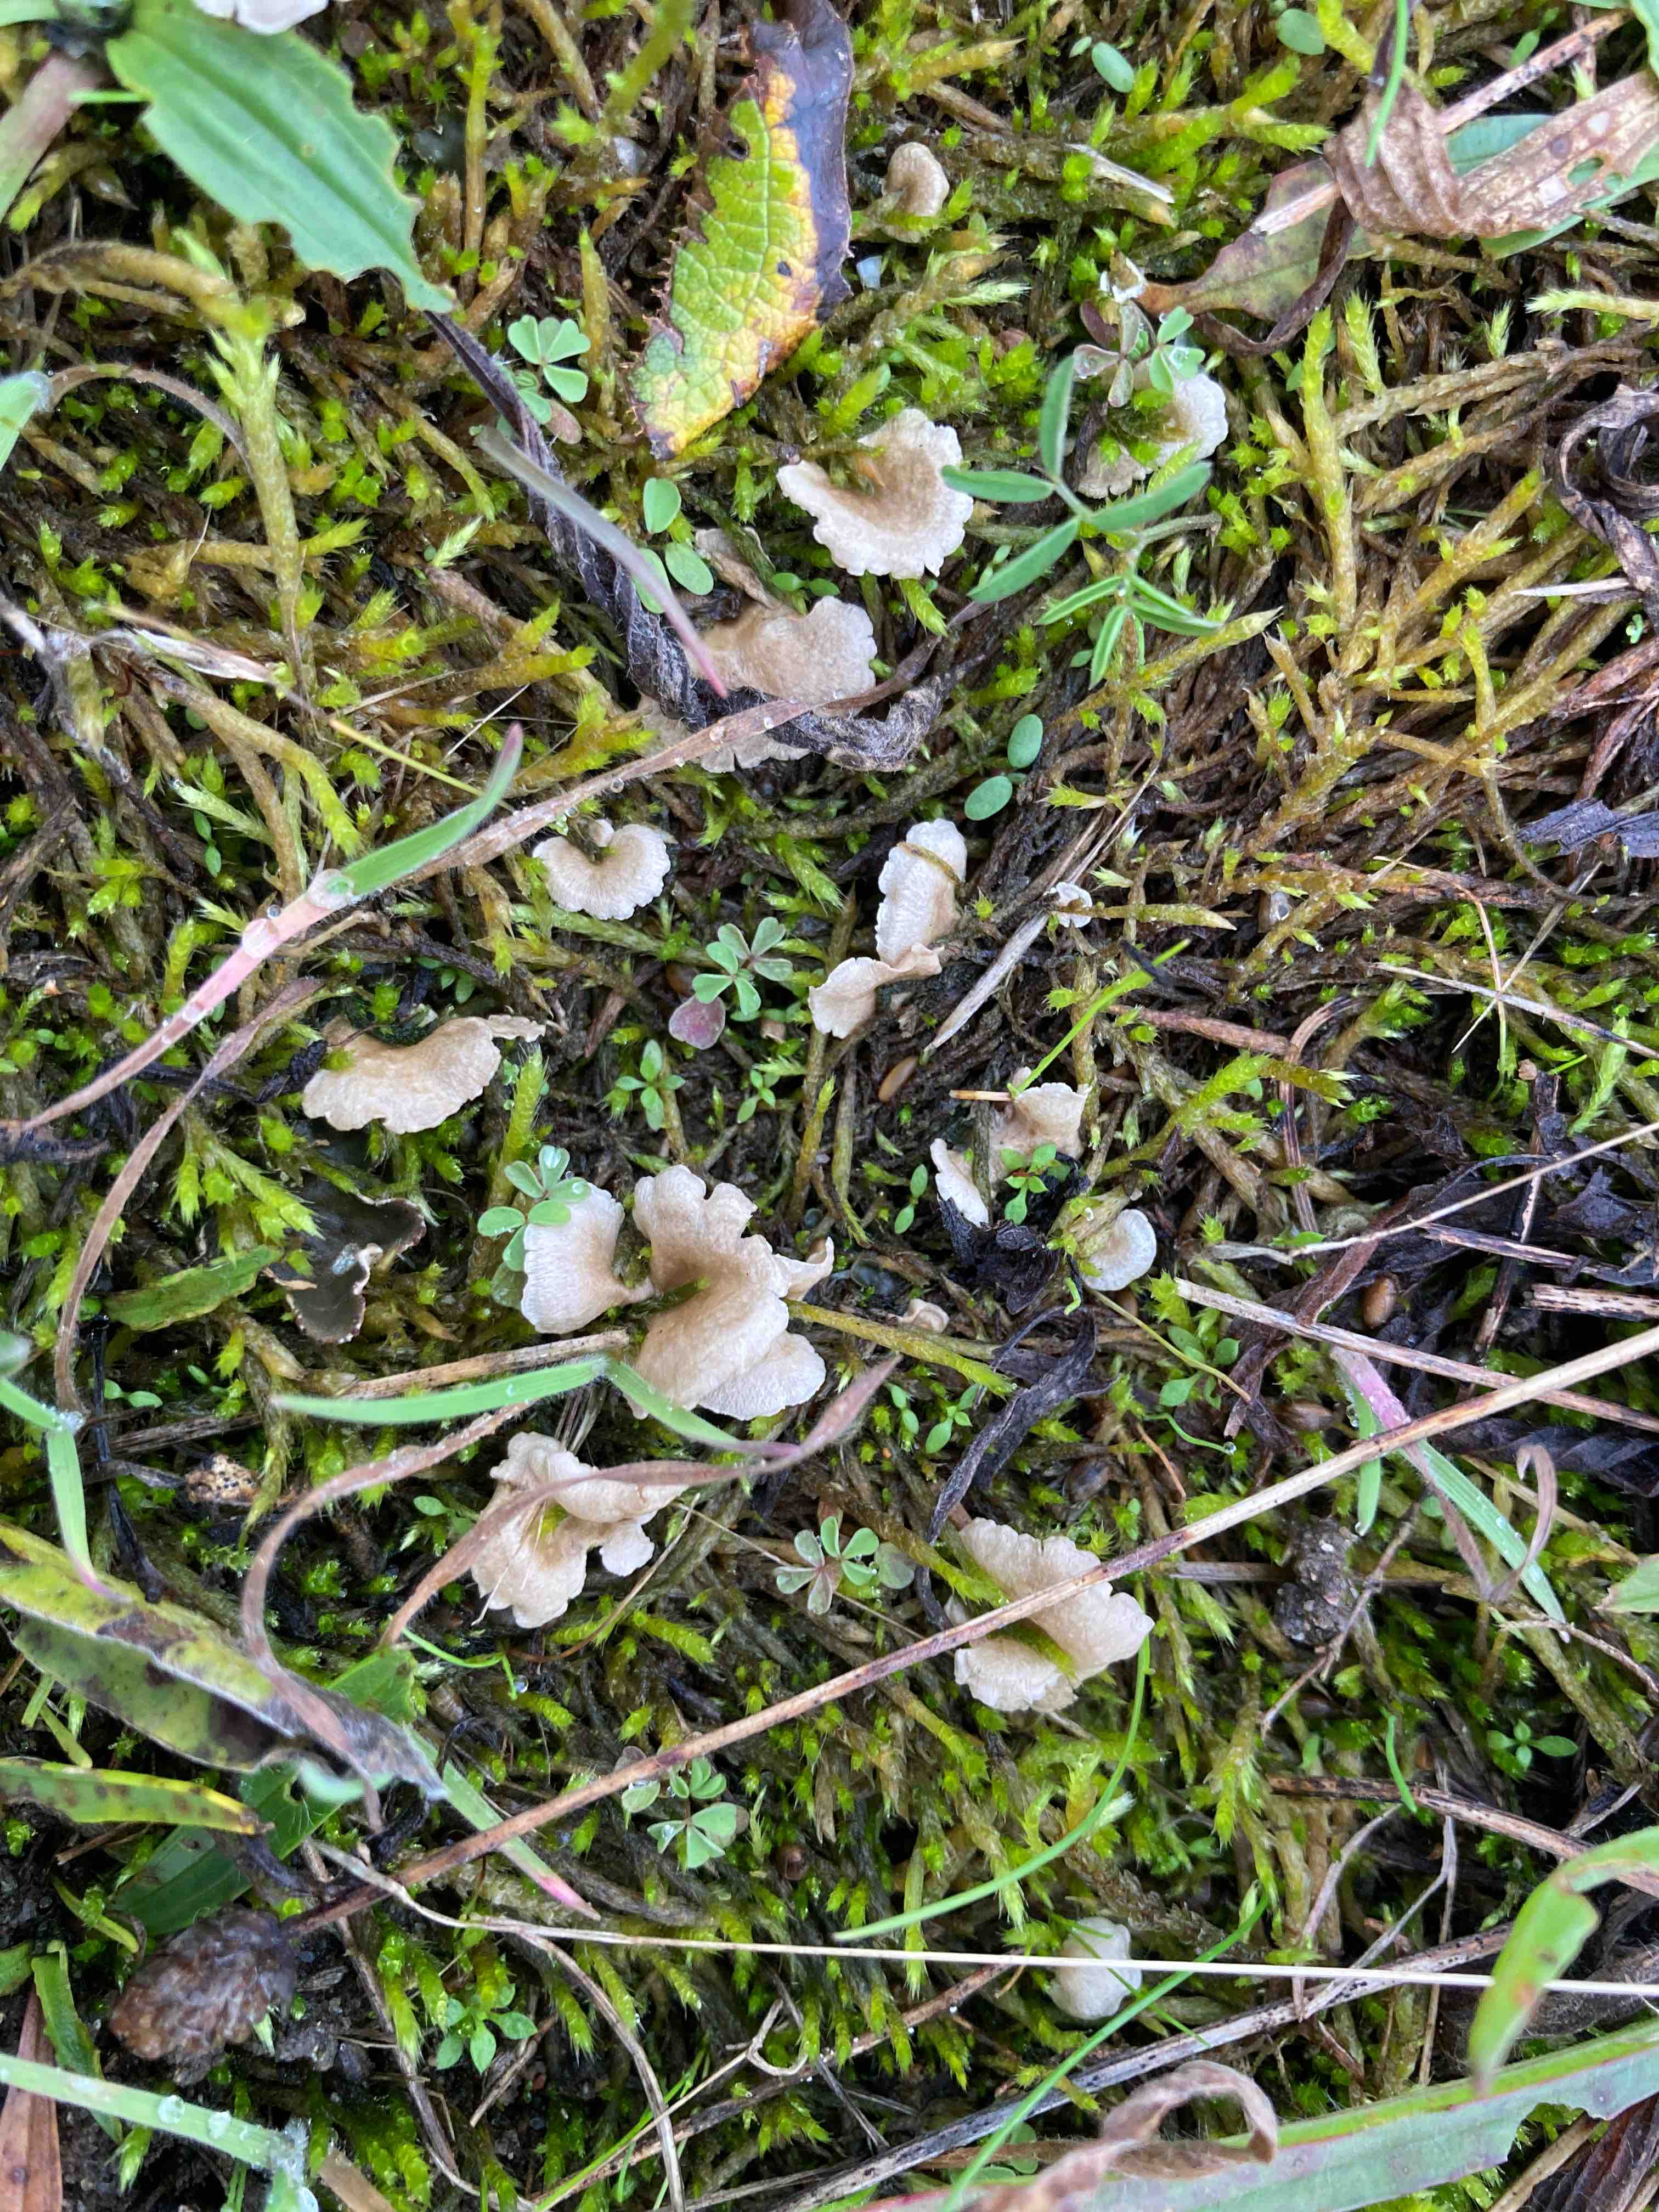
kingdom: Fungi
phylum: Basidiomycota
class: Agaricomycetes
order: Agaricales
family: Hygrophoraceae
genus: Arrhenia
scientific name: Arrhenia retiruga
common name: lille fontænehat
